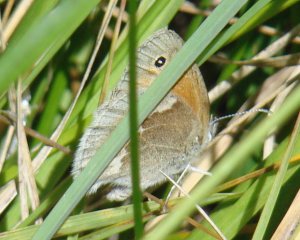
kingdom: Animalia
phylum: Arthropoda
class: Insecta
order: Lepidoptera
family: Nymphalidae
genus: Coenonympha
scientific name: Coenonympha tullia
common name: Large Heath
